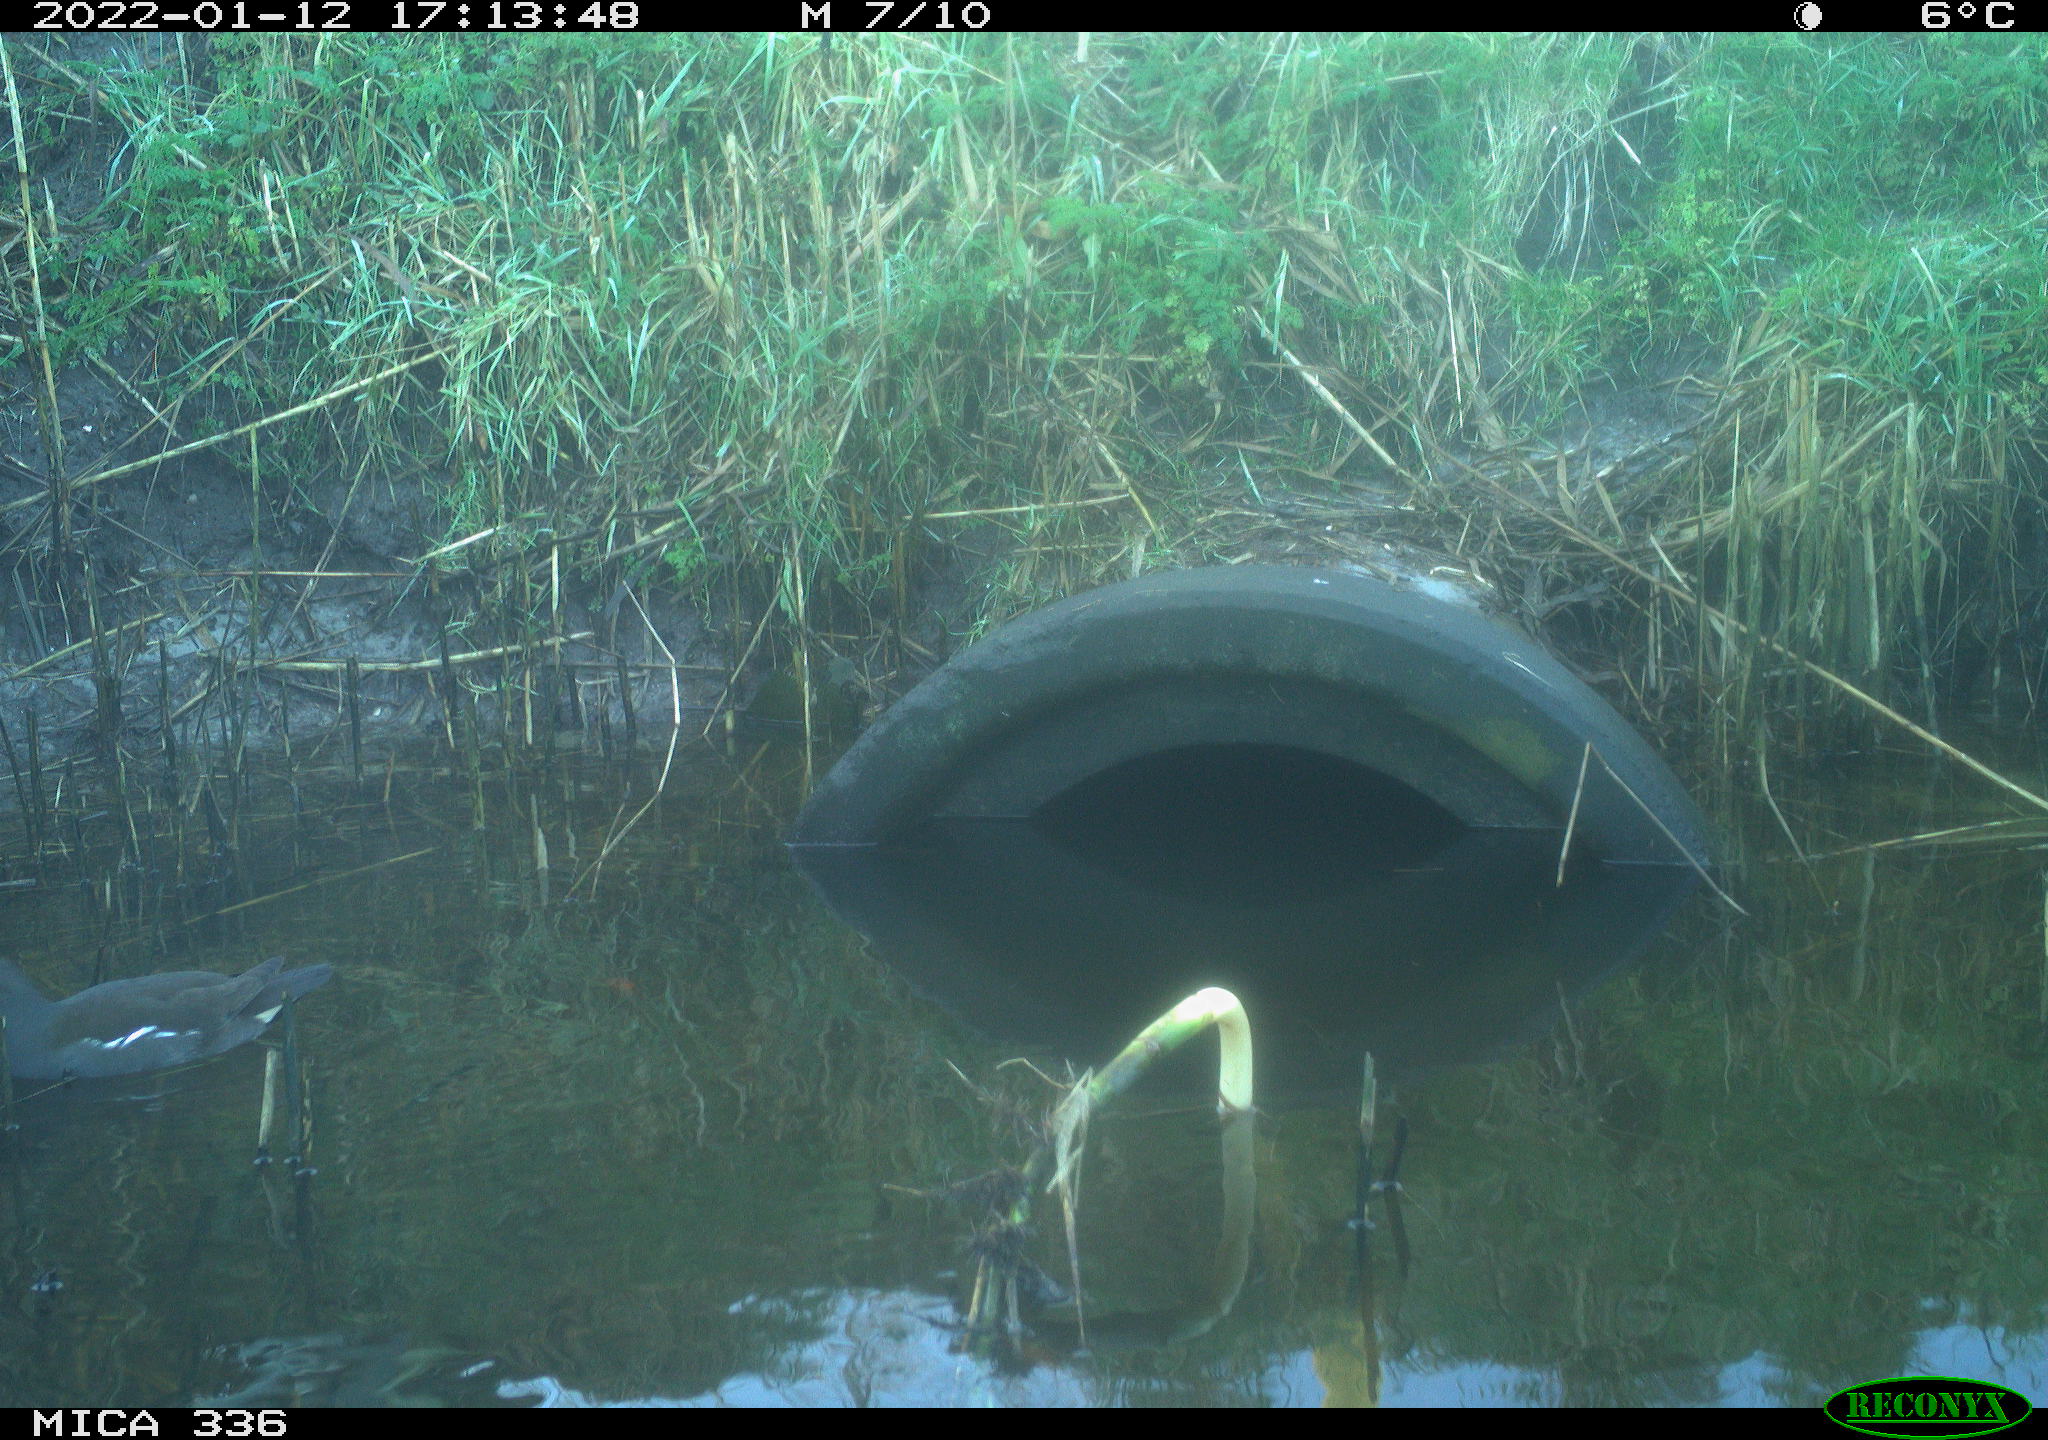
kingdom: Animalia
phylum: Chordata
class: Aves
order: Gruiformes
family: Rallidae
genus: Gallinula
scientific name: Gallinula chloropus
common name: Common moorhen
